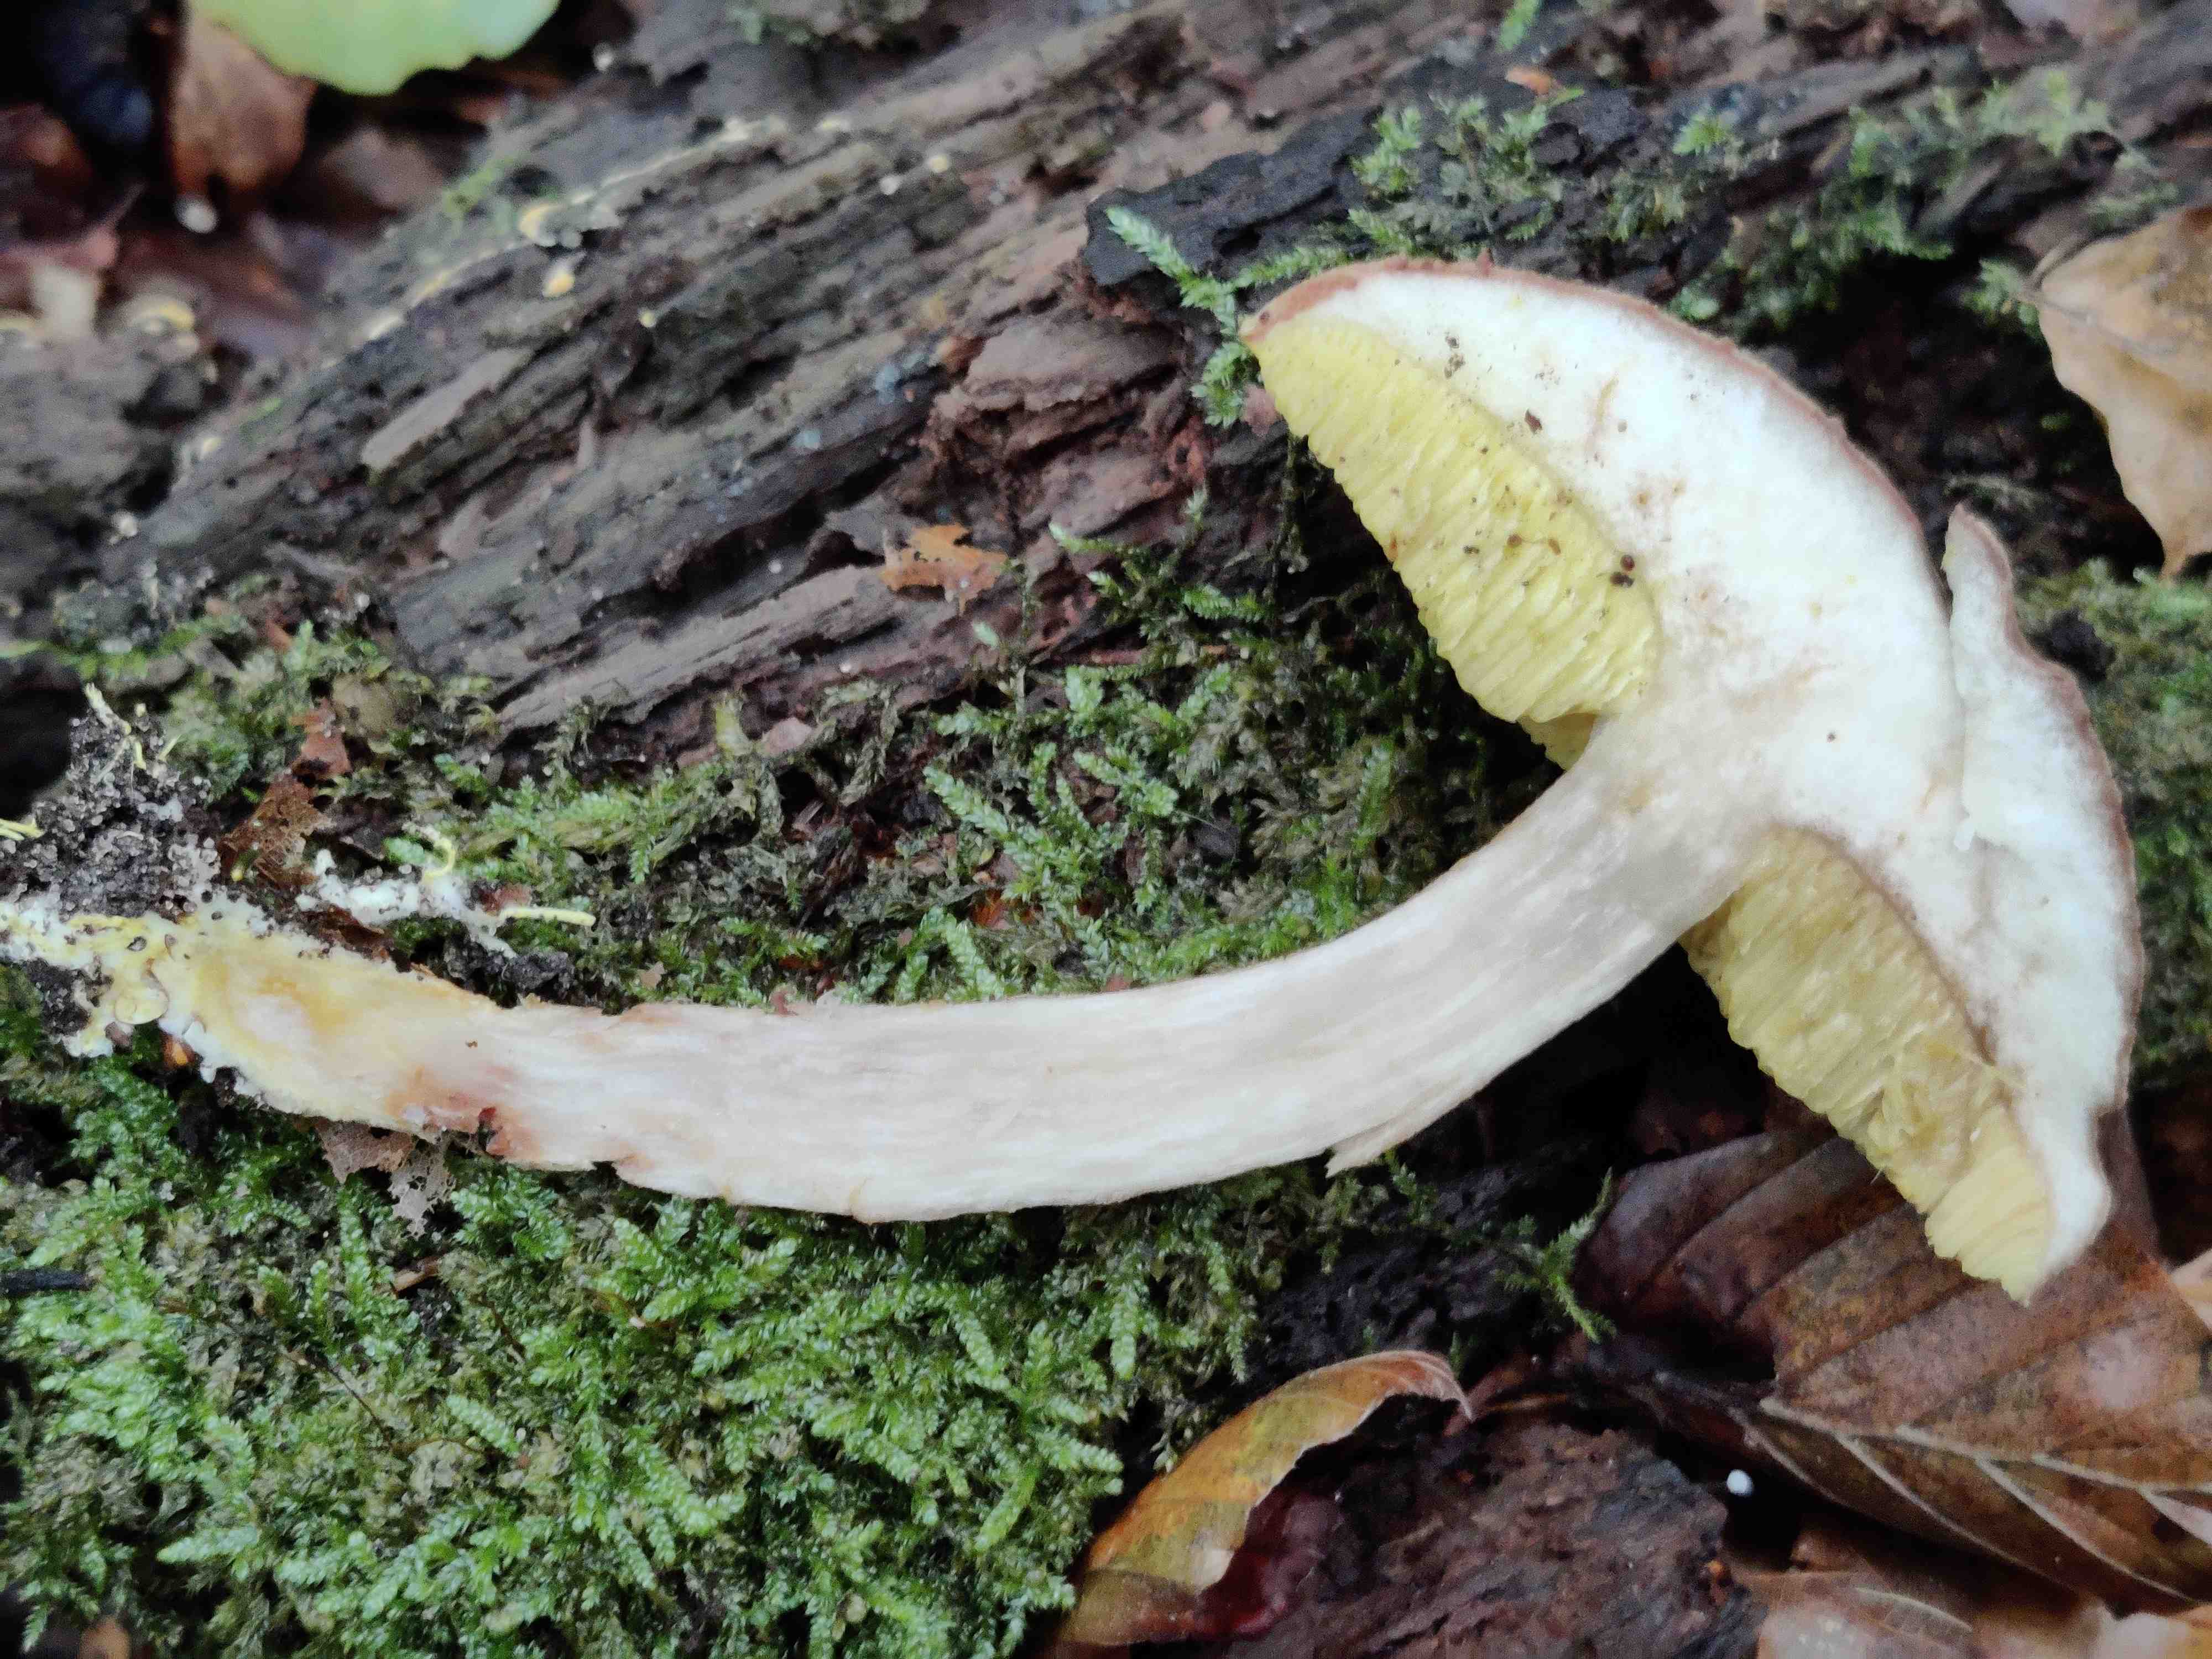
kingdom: Fungi
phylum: Basidiomycota
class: Agaricomycetes
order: Boletales
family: Boletaceae
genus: Xerocomus
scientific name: Xerocomus ferrugineus
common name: vaskeskinds-rørhat
